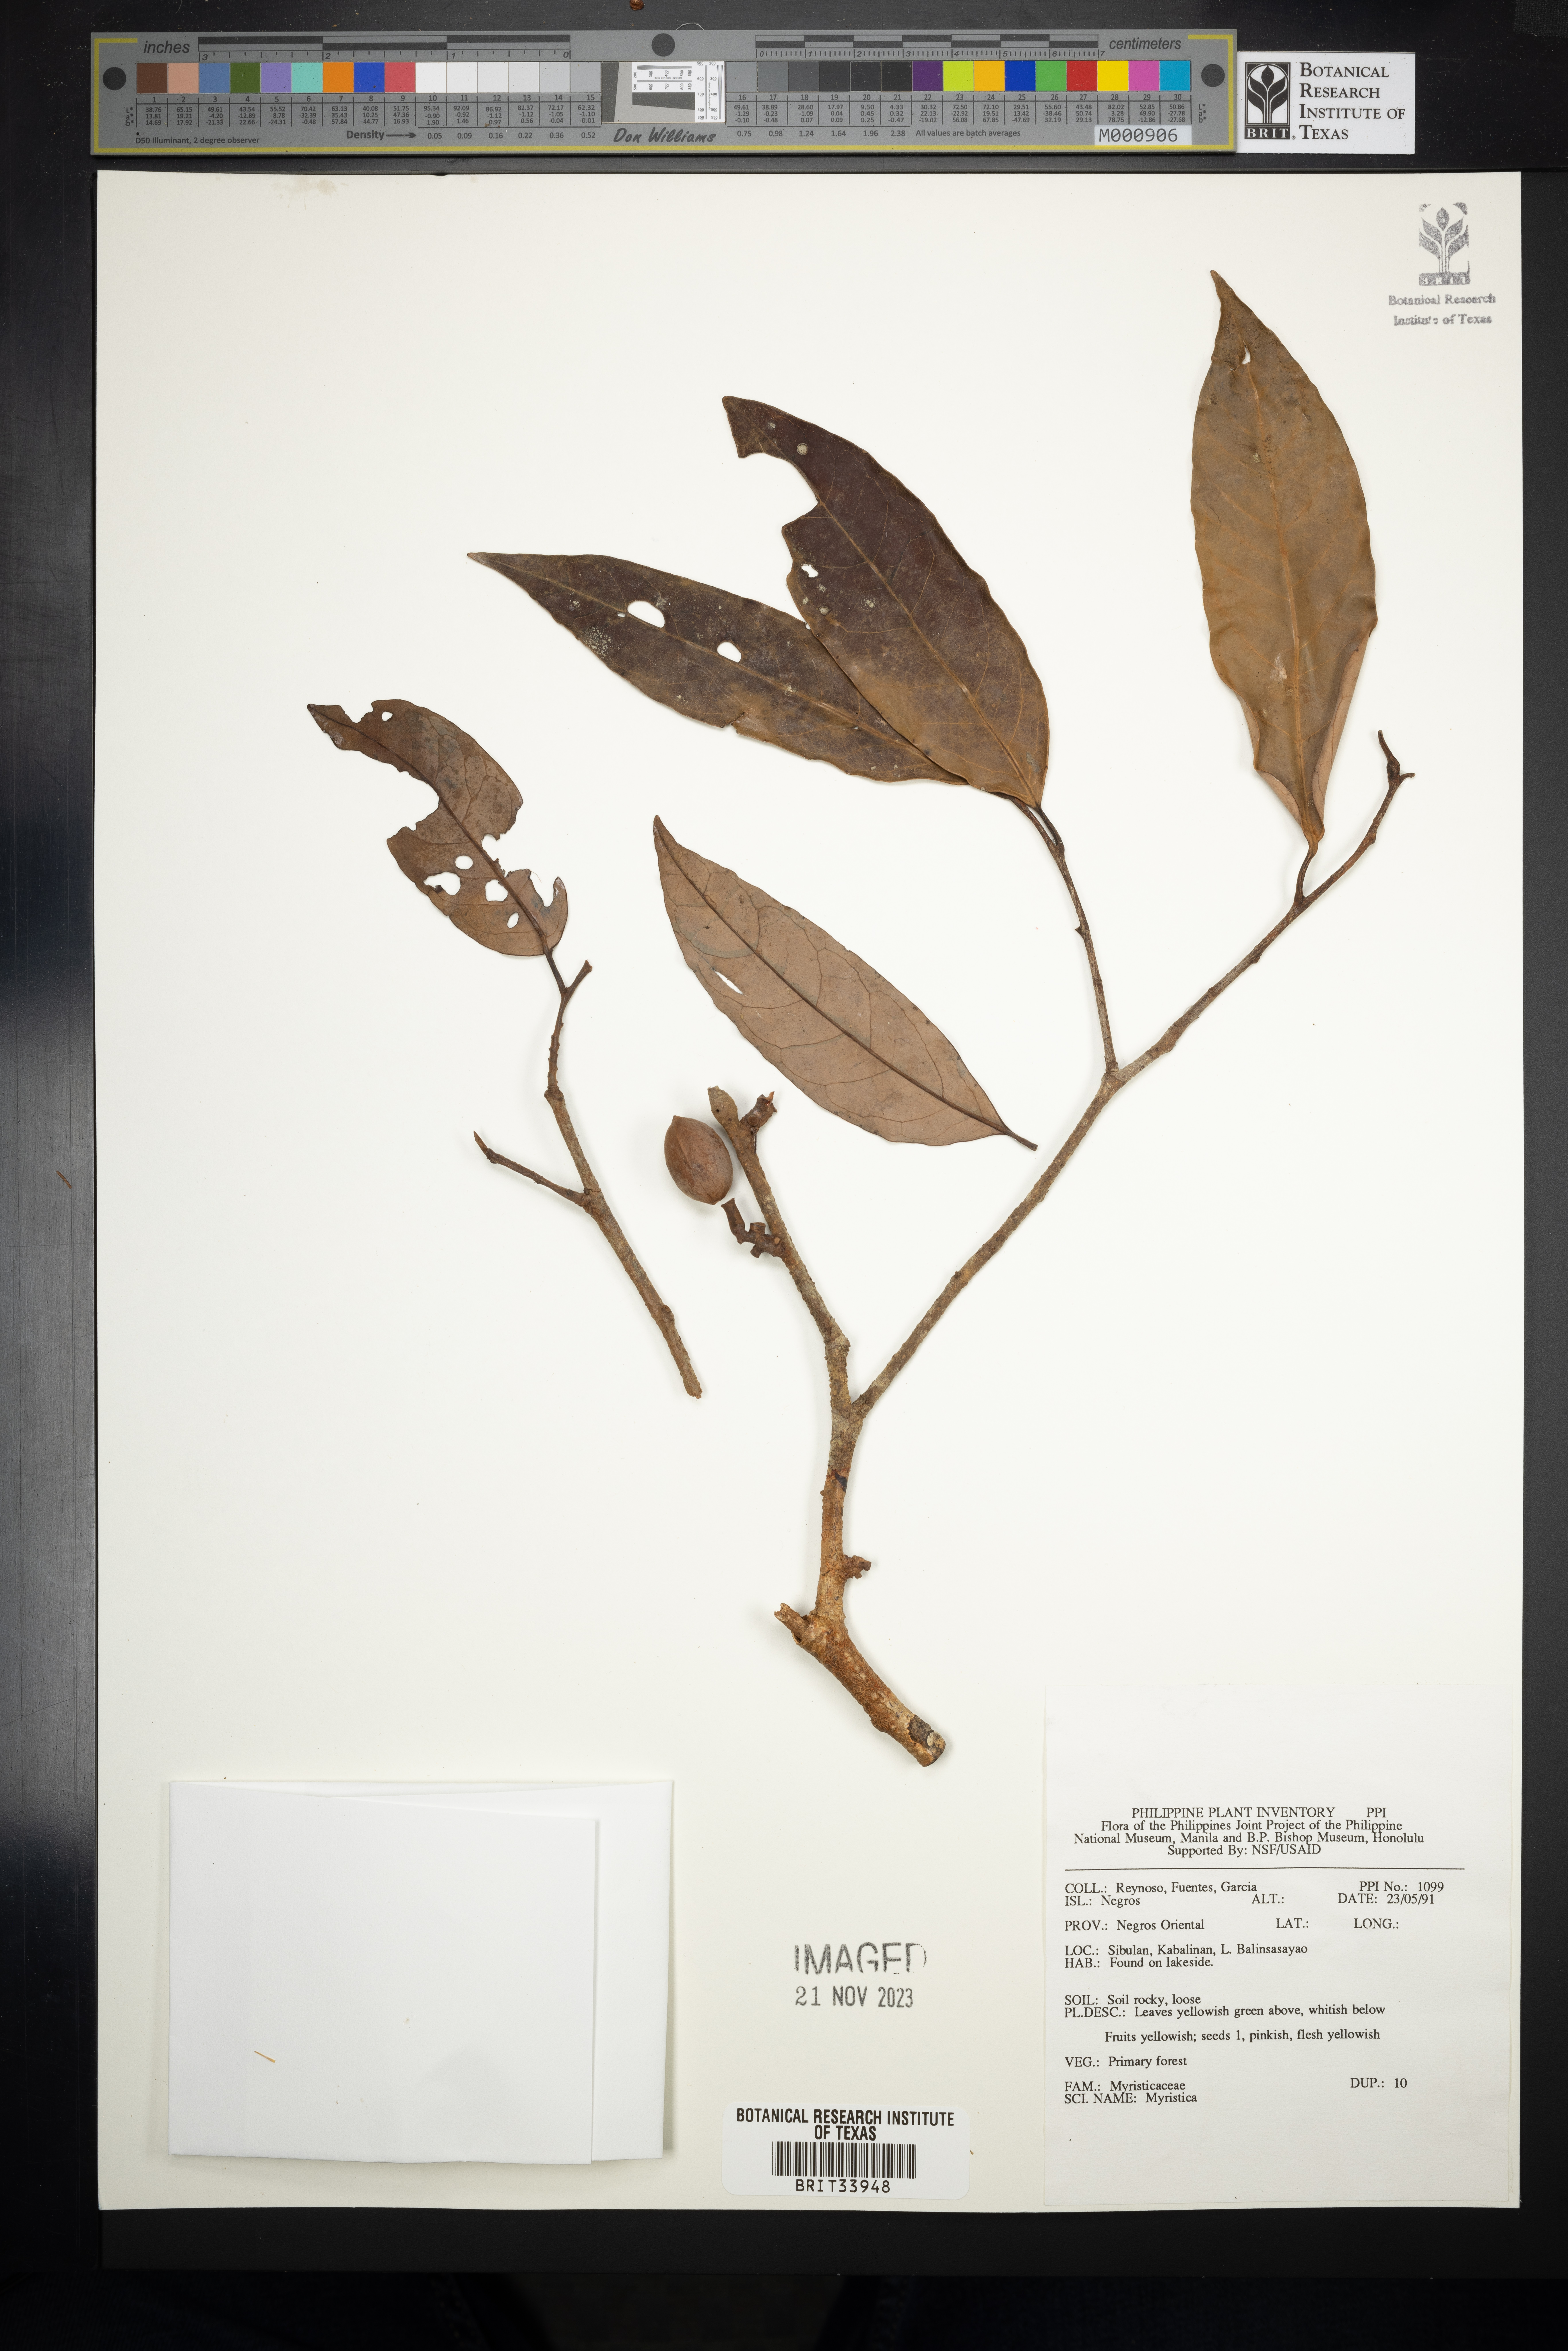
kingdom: Plantae
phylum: Tracheophyta
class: Magnoliopsida
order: Magnoliales
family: Myristicaceae
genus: Myristica
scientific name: Myristica
